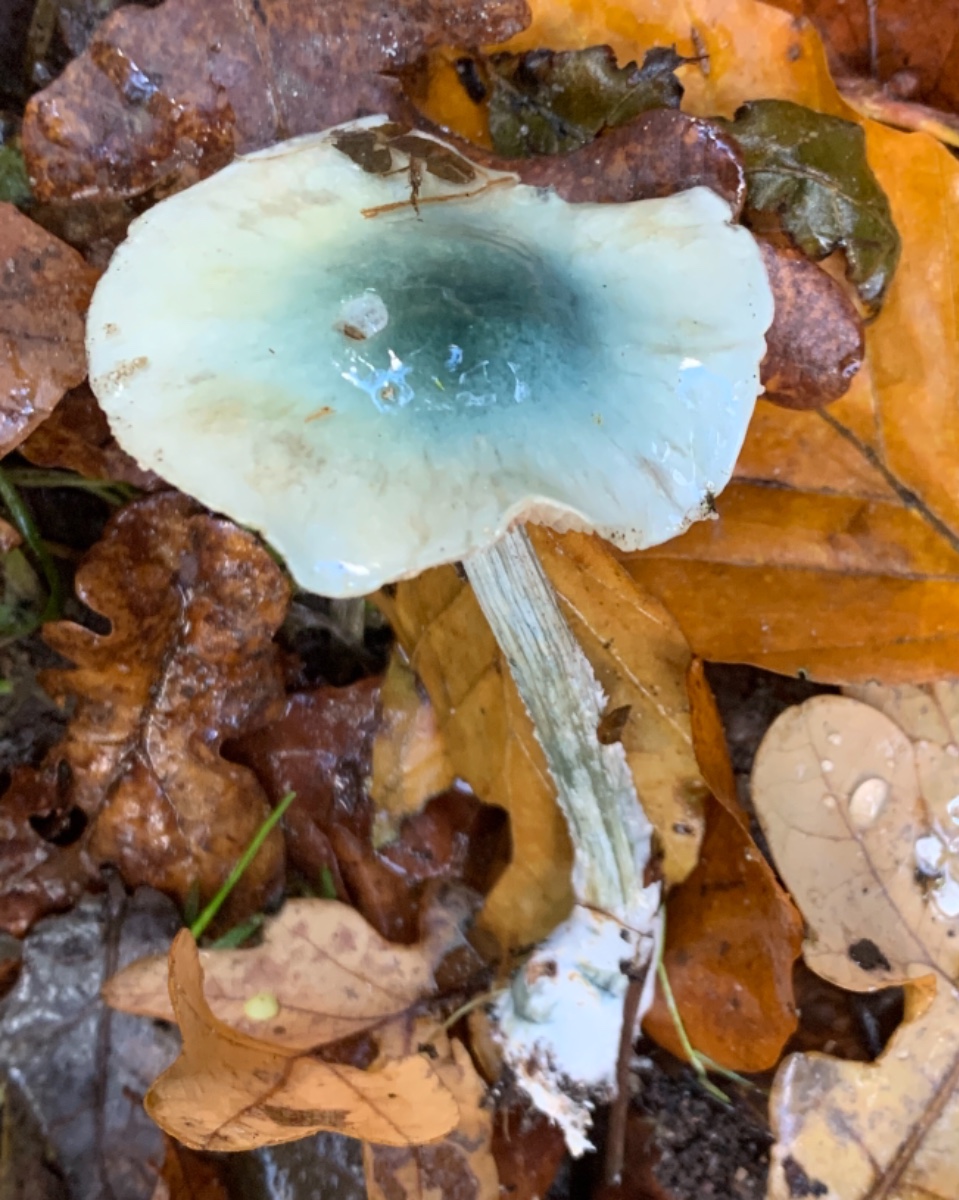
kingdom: Fungi
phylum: Basidiomycota
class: Agaricomycetes
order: Agaricales
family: Strophariaceae
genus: Stropharia
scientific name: Stropharia cyanea
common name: blågrøn bredblad
